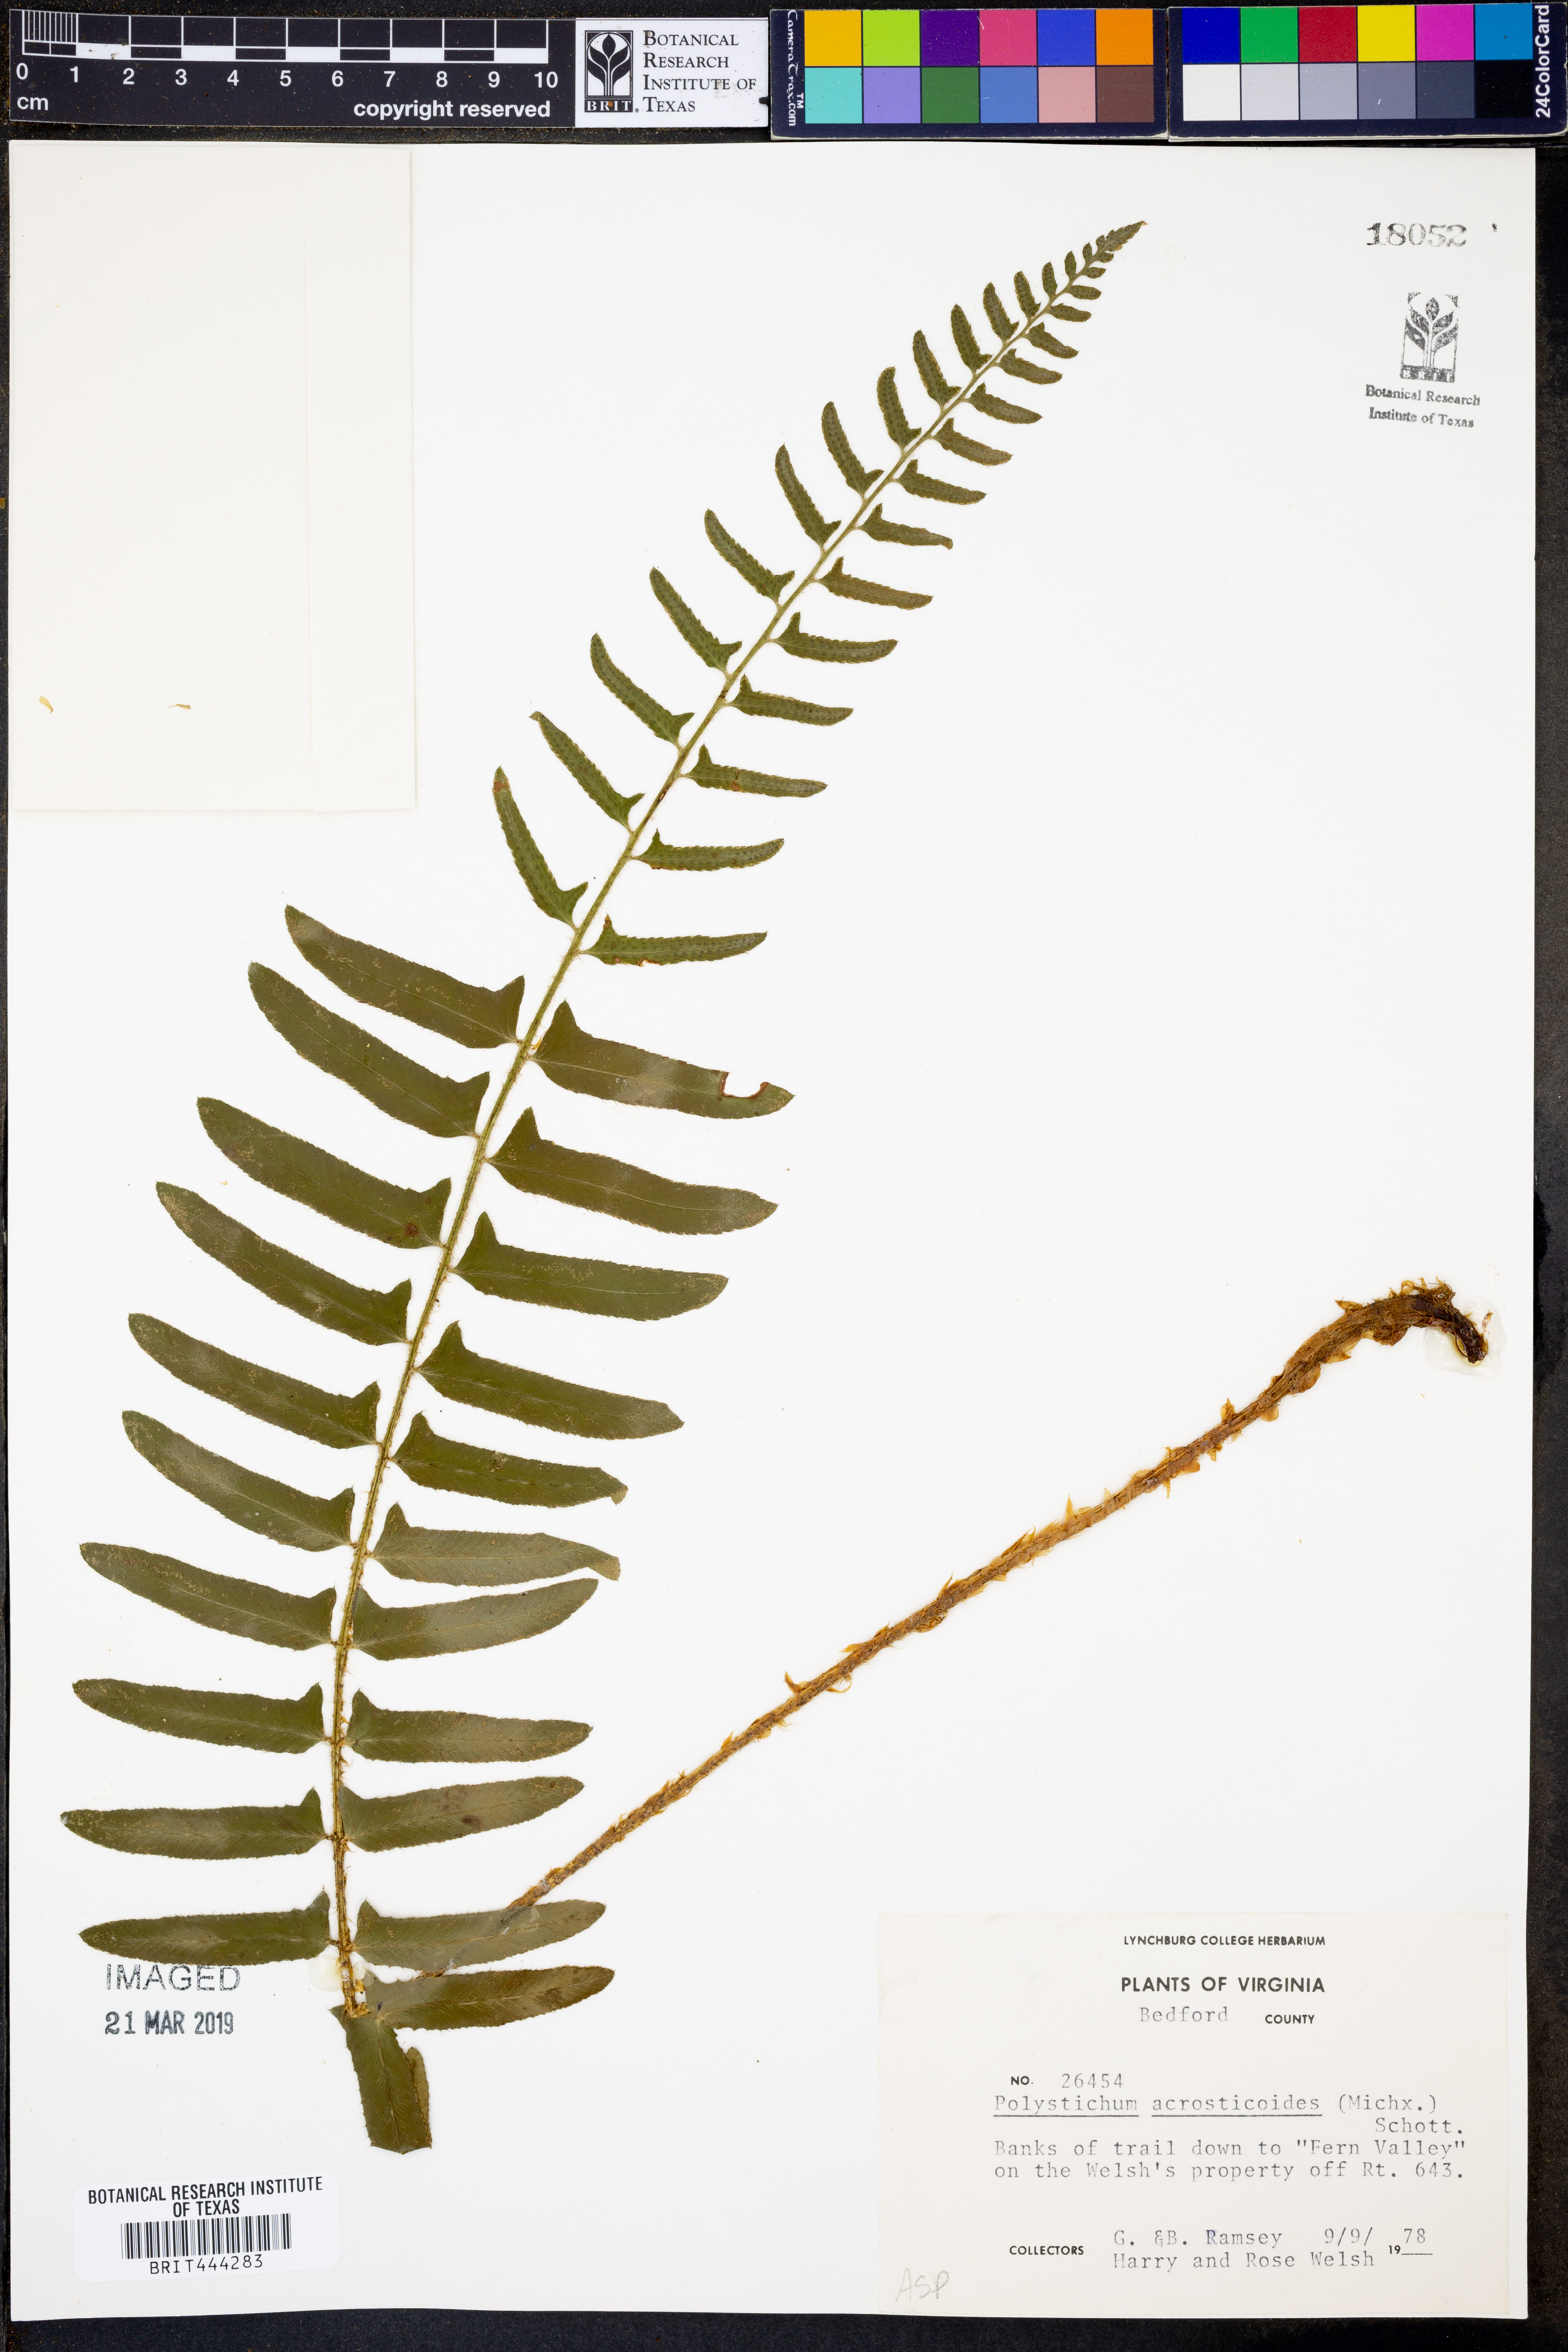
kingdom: Plantae
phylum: Tracheophyta
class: Polypodiopsida
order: Polypodiales
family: Dryopteridaceae
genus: Polystichum
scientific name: Polystichum acrostichoides
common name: Christmas fern
